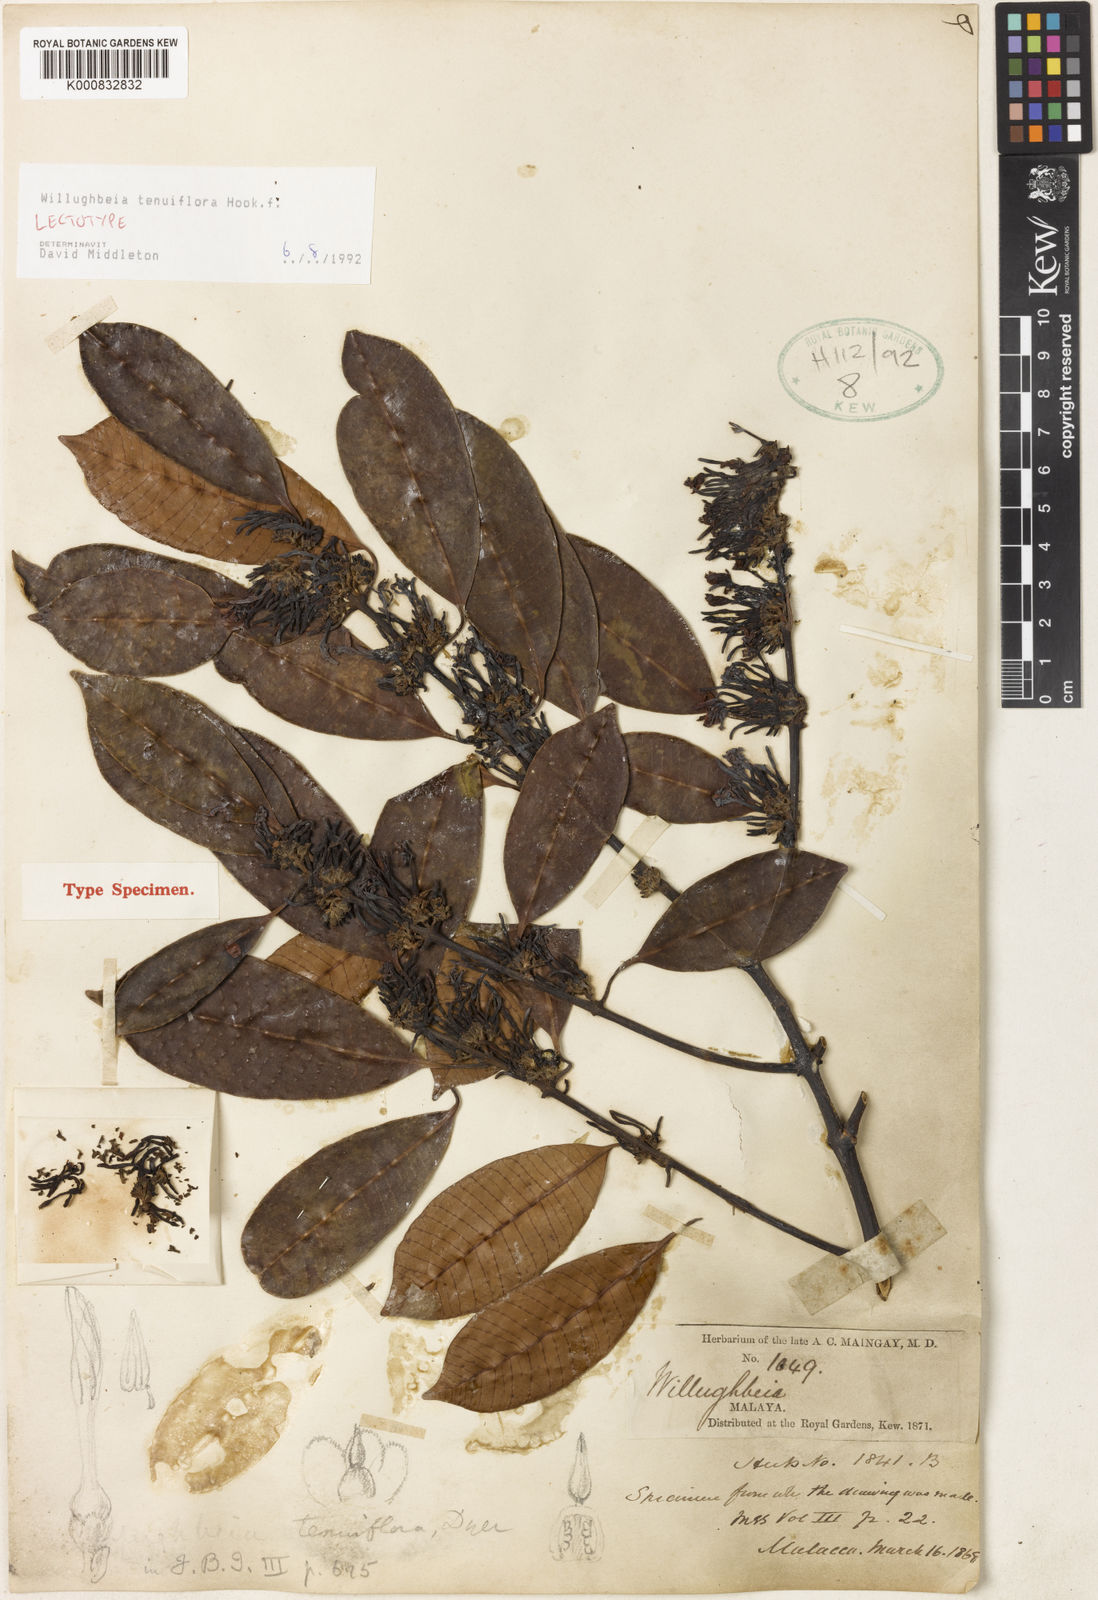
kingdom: Plantae
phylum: Tracheophyta
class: Magnoliopsida
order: Gentianales
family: Apocynaceae
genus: Willughbeia
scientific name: Willughbeia tenuiflora
